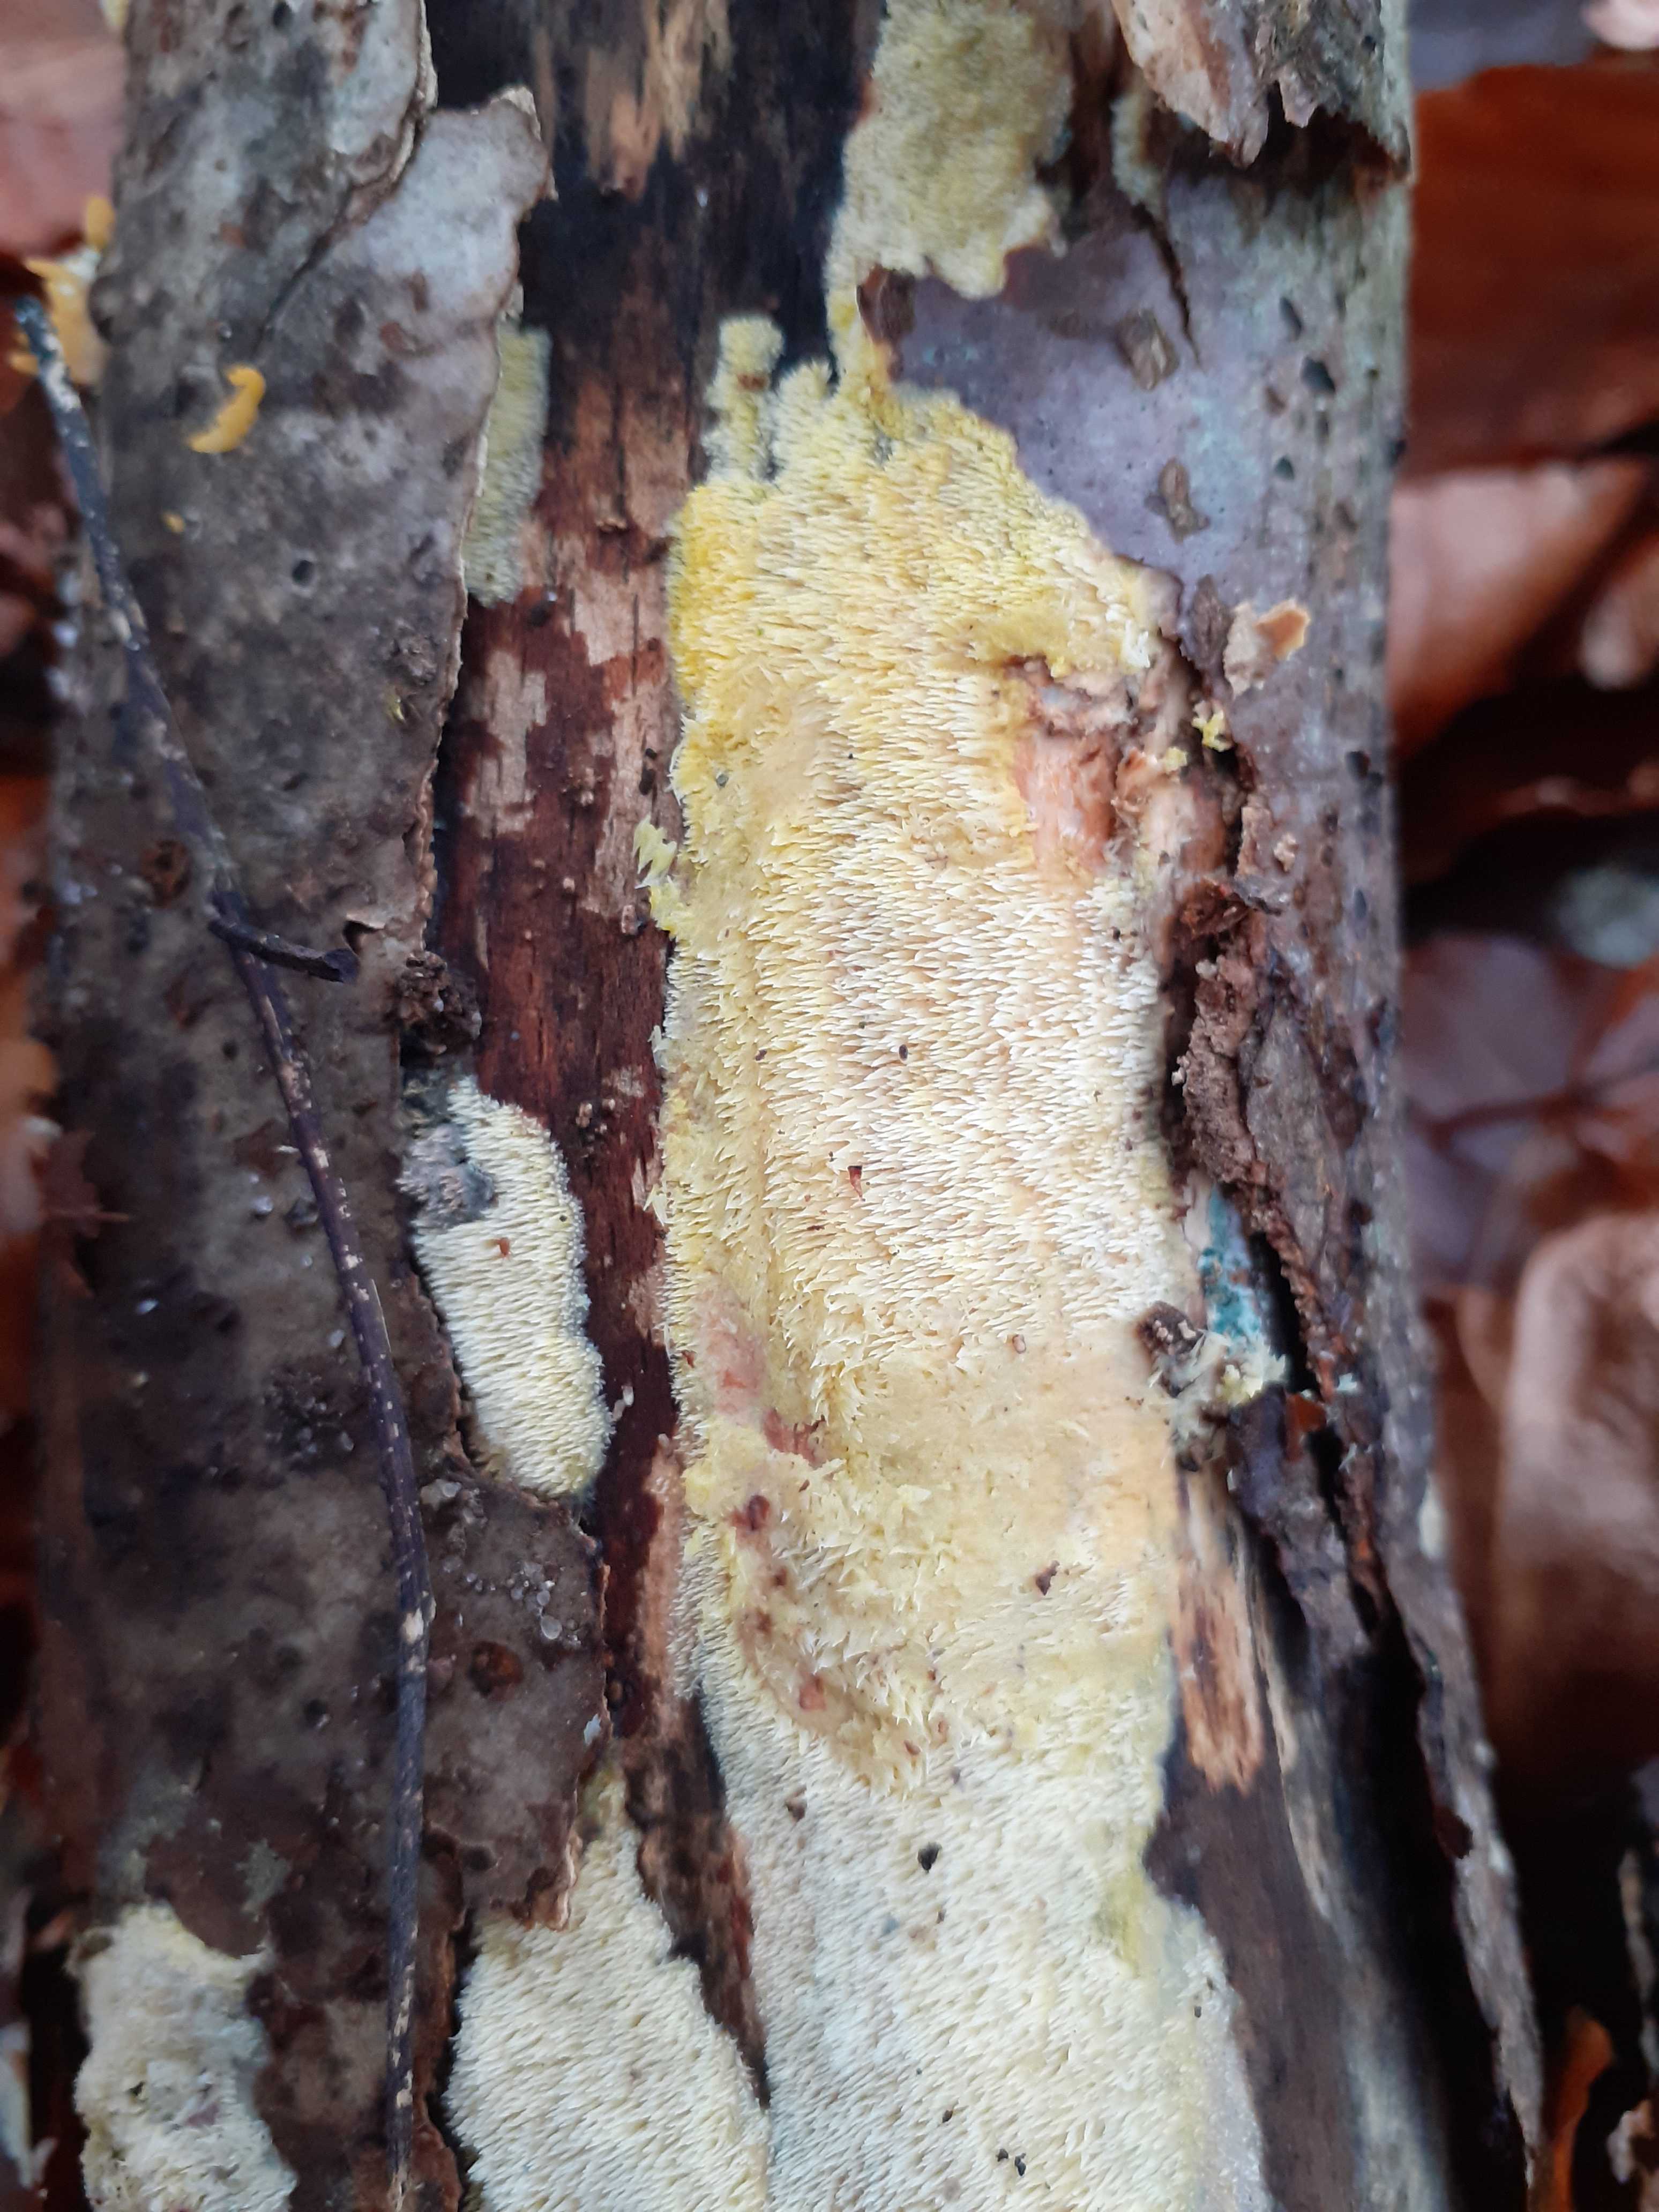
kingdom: Fungi
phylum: Basidiomycota
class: Agaricomycetes
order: Polyporales
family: Meruliaceae
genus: Mycoacia
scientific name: Mycoacia uda
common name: citrongul vokspig
